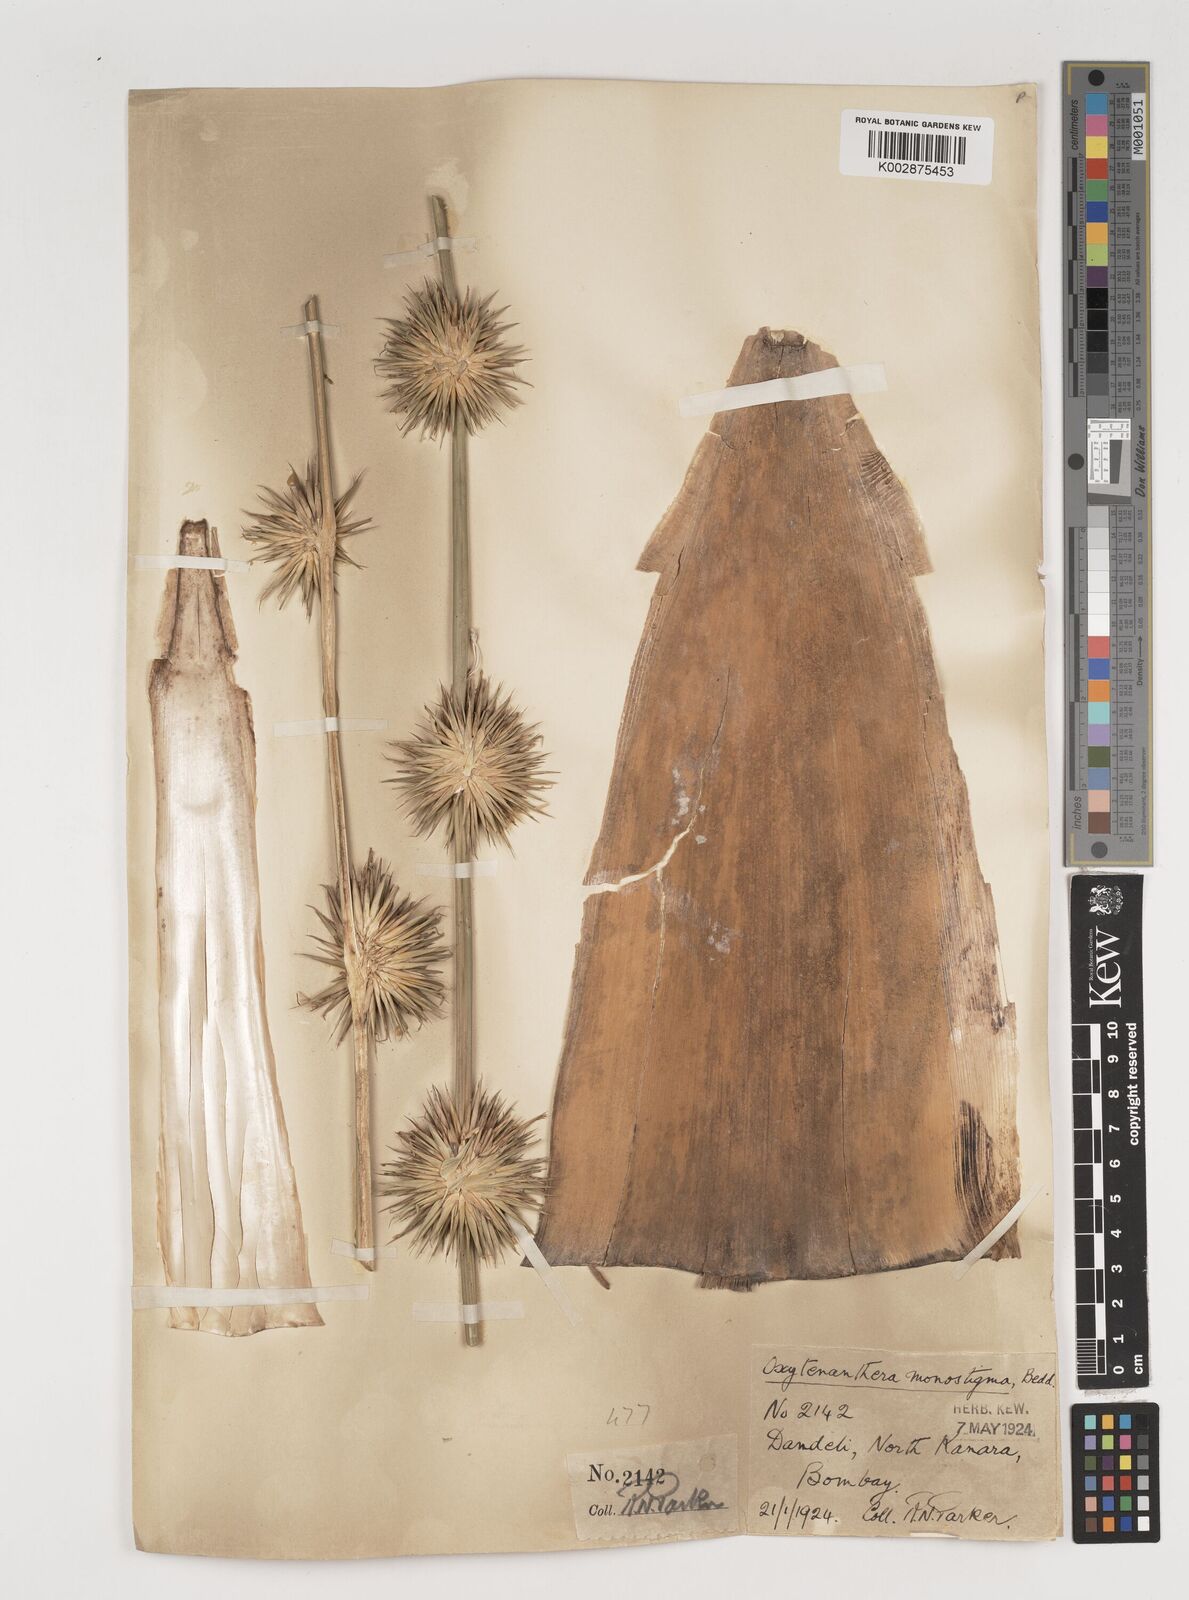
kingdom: Plantae
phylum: Tracheophyta
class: Liliopsida
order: Poales
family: Poaceae
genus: Pseudoxytenanthera
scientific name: Pseudoxytenanthera monadelpha
